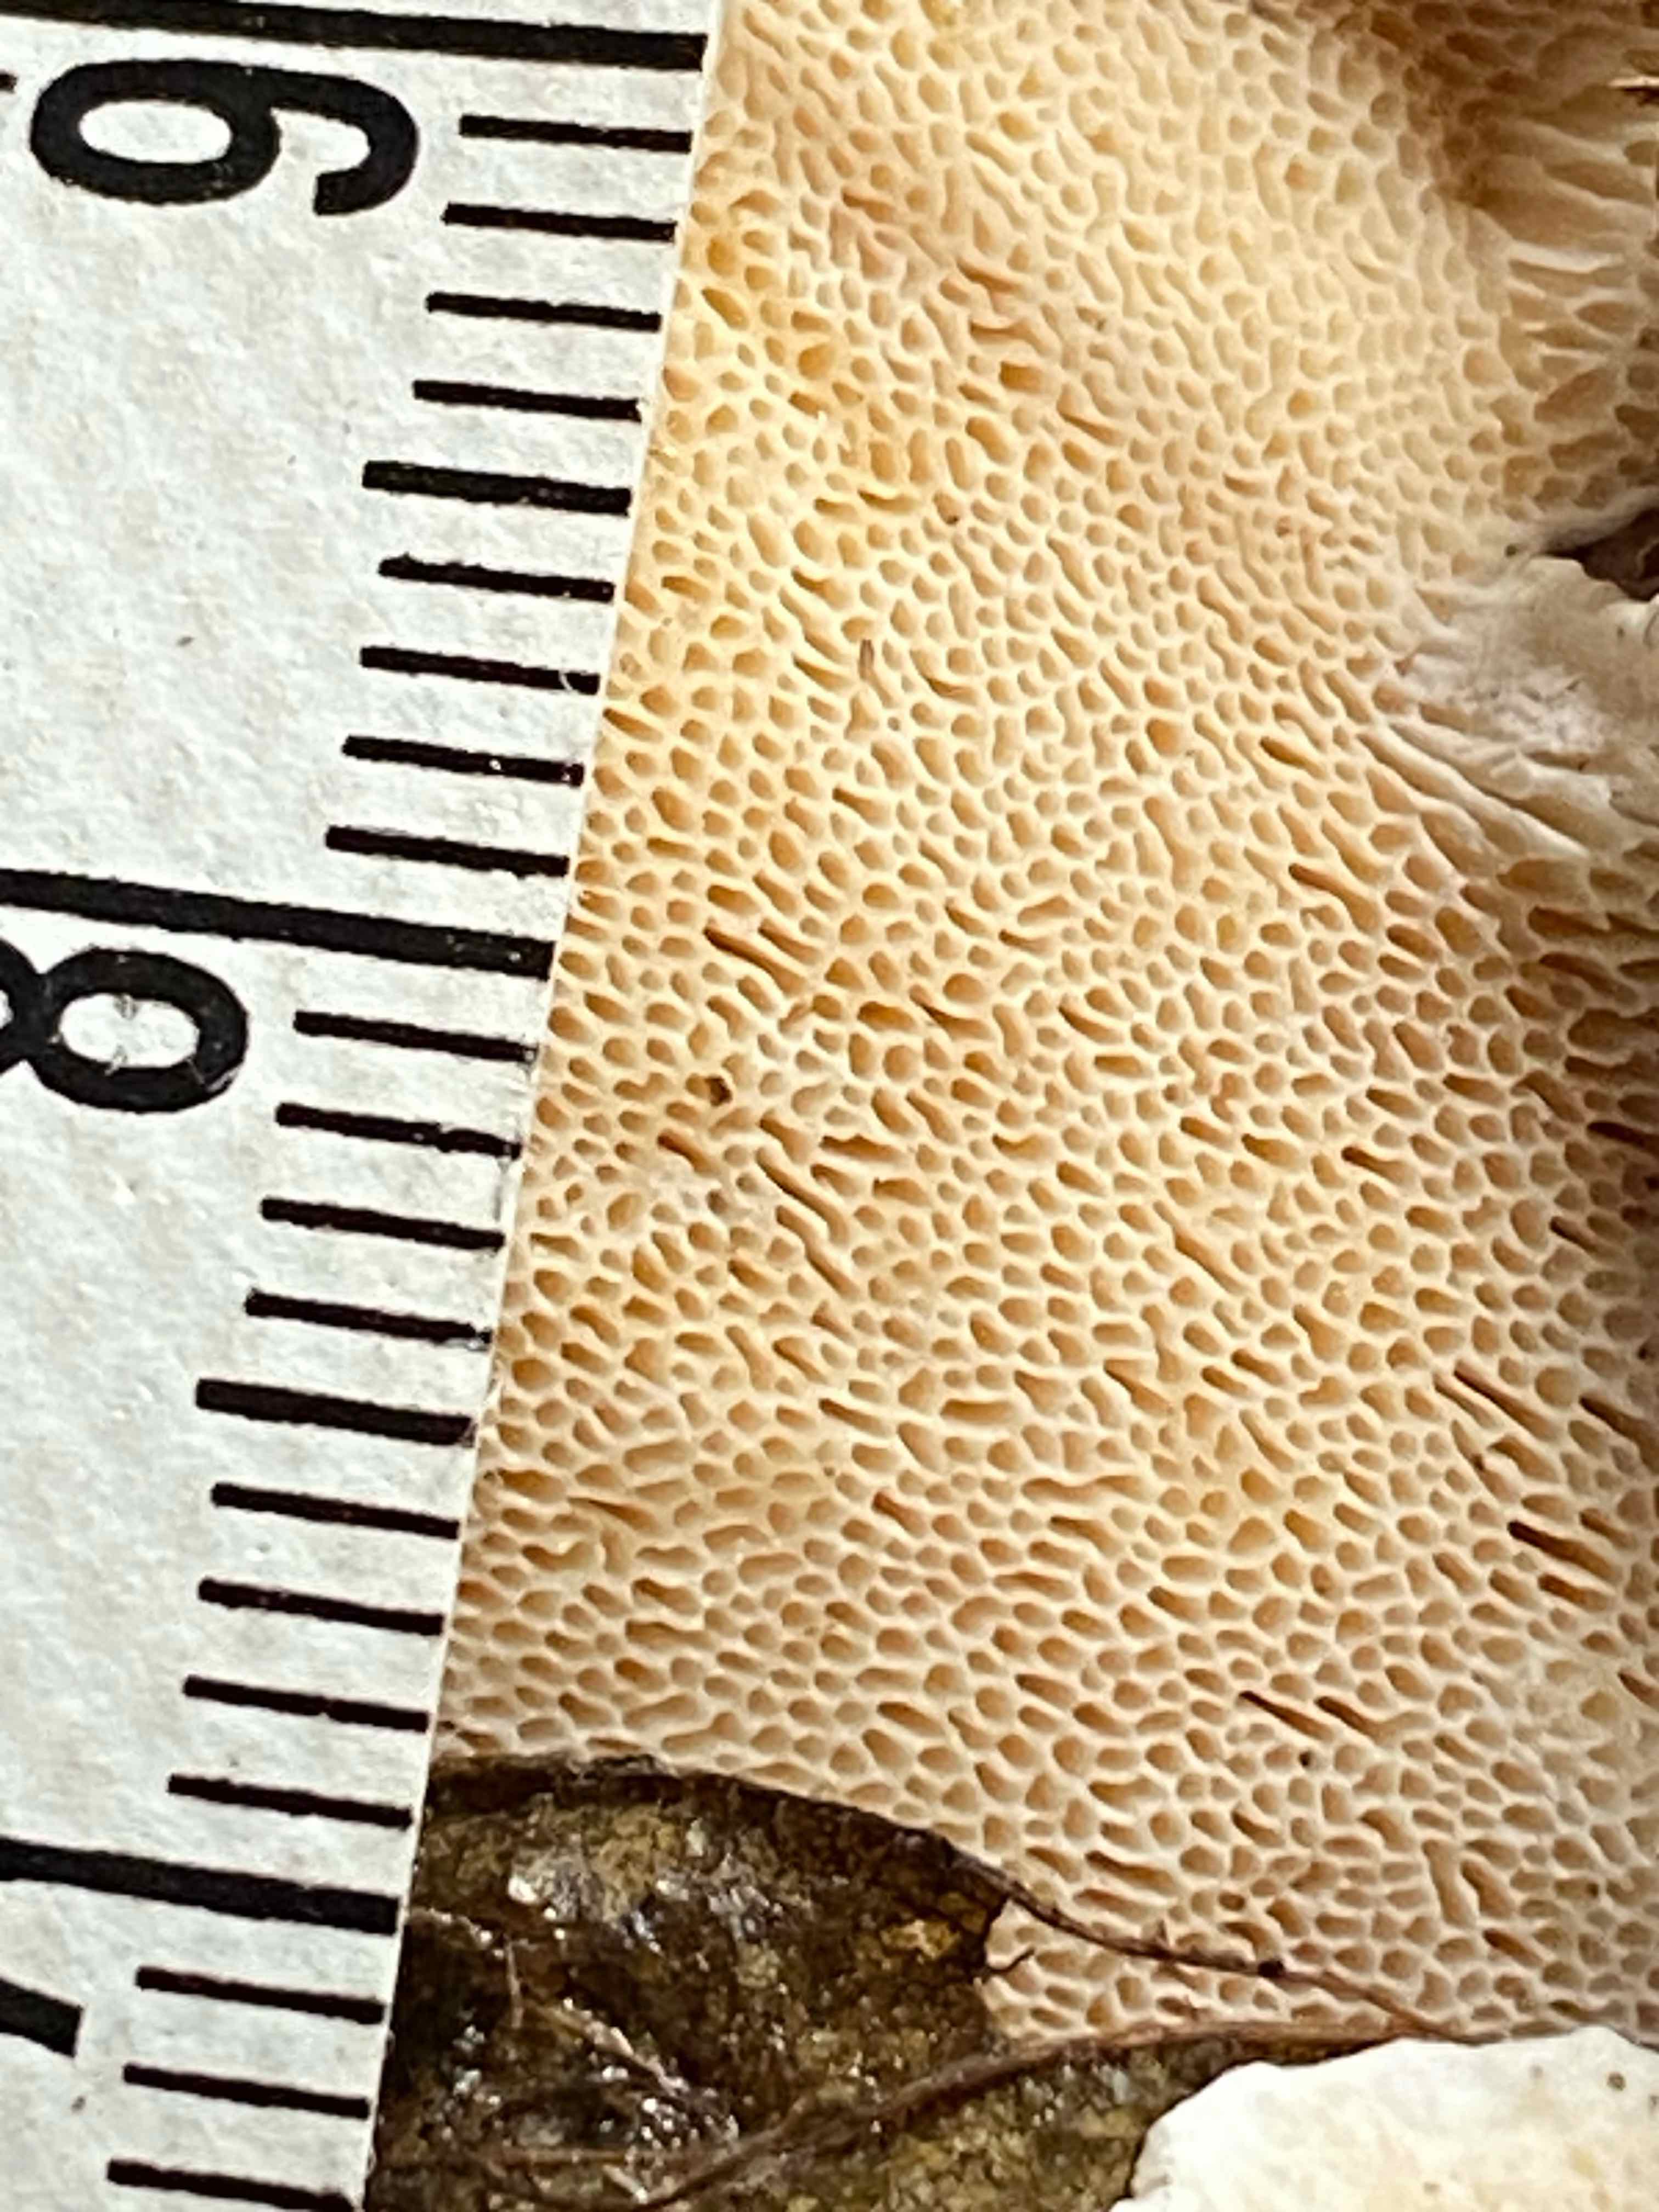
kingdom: Fungi
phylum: Basidiomycota
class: Agaricomycetes
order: Russulales
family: Bondarzewiaceae
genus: Heterobasidion
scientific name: Heterobasidion annosum
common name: almindelig rodfordærver
